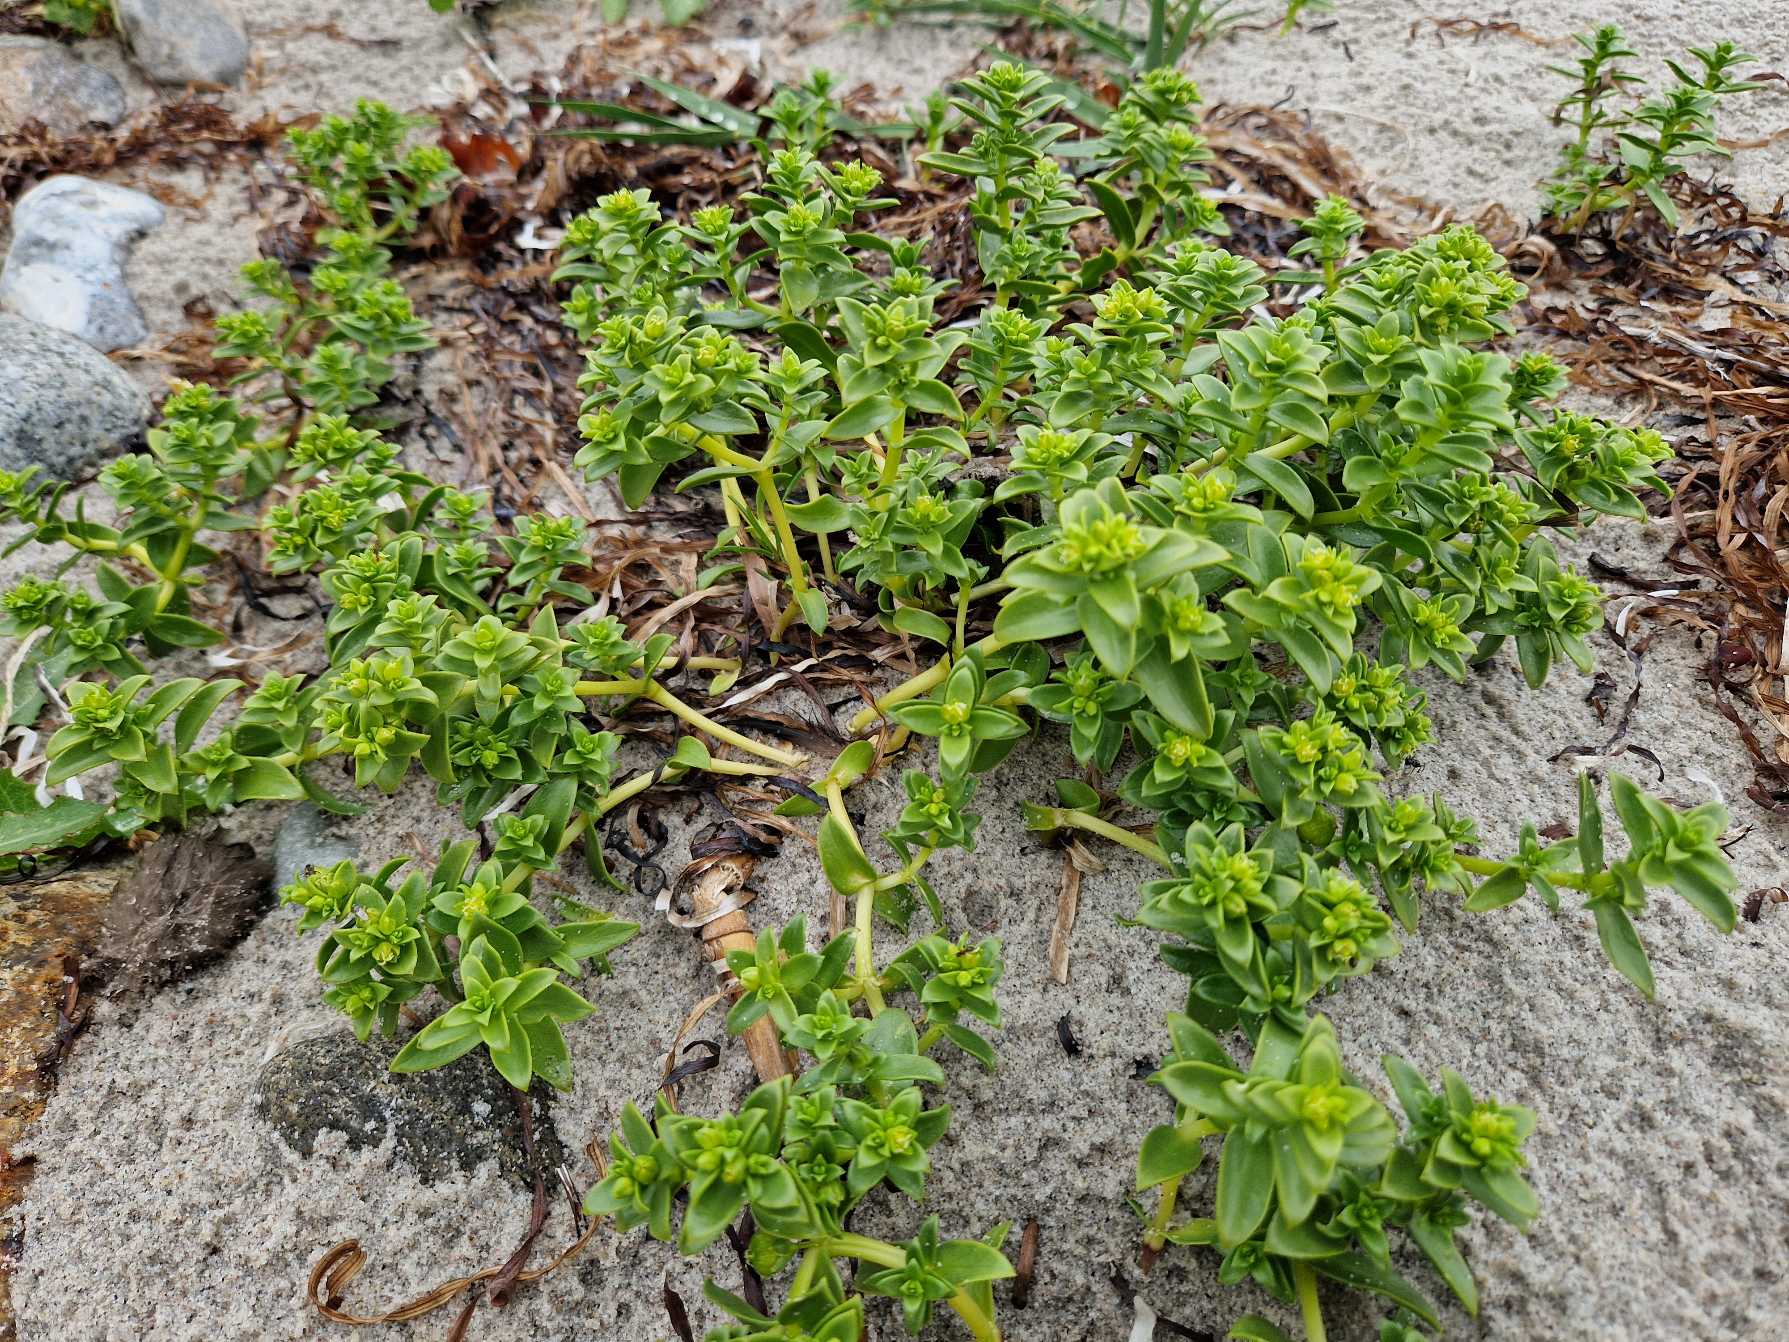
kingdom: Plantae
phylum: Tracheophyta
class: Magnoliopsida
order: Caryophyllales
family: Caryophyllaceae
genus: Honckenya
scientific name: Honckenya peploides
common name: Strandarve
